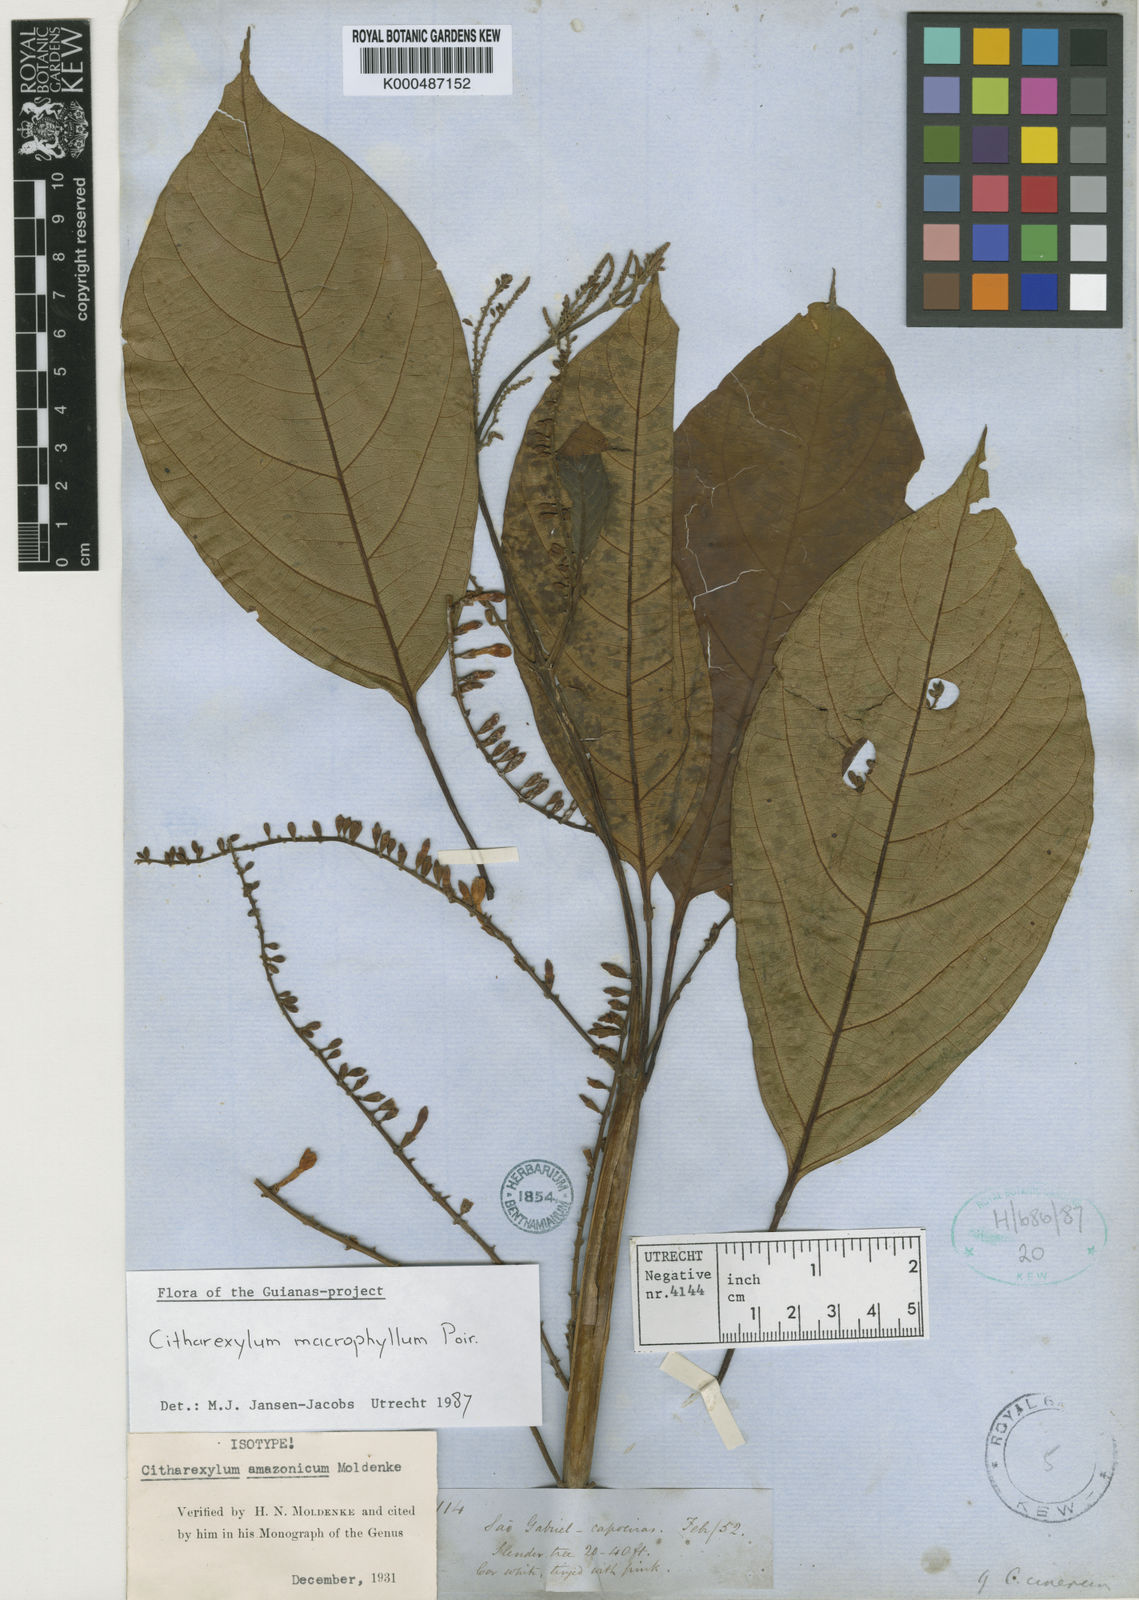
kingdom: Plantae
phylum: Tracheophyta
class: Magnoliopsida
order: Lamiales
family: Verbenaceae
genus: Citharexylum
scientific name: Citharexylum macrochlamys
